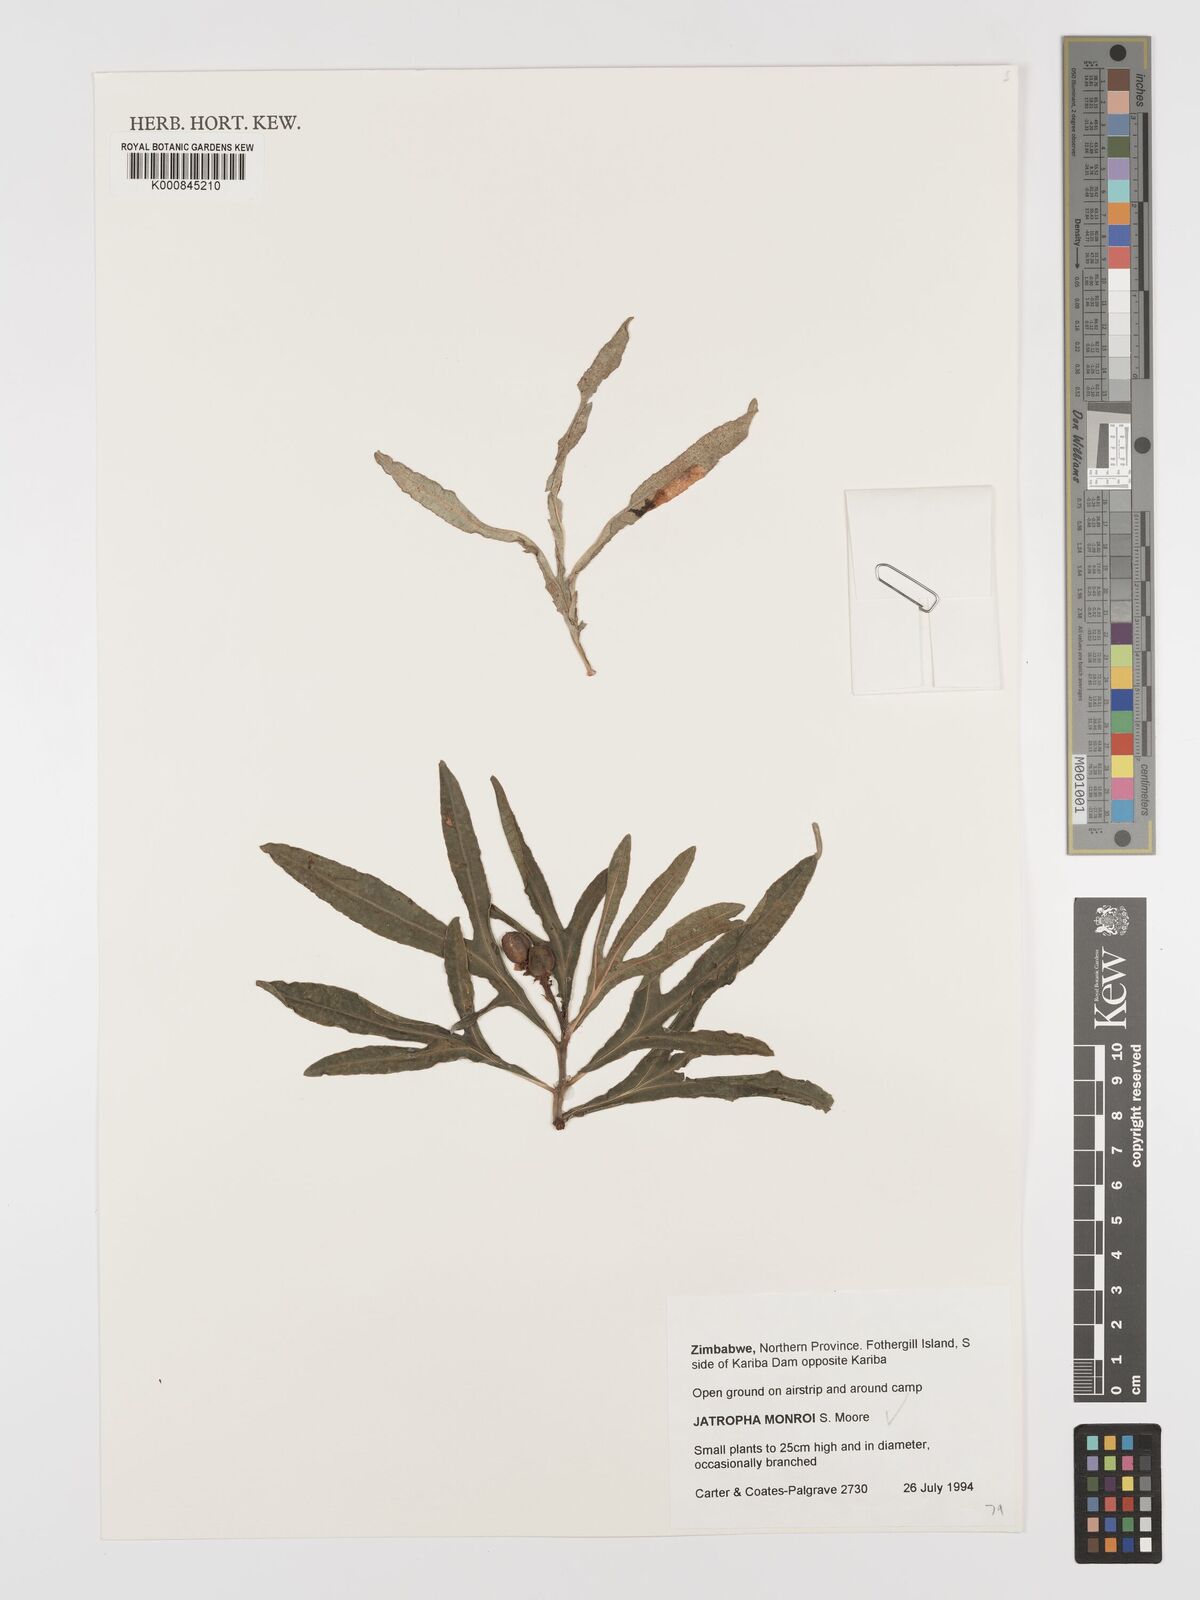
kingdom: Plantae
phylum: Tracheophyta
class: Magnoliopsida
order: Malpighiales
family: Euphorbiaceae
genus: Jatropha
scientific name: Jatropha monroi
